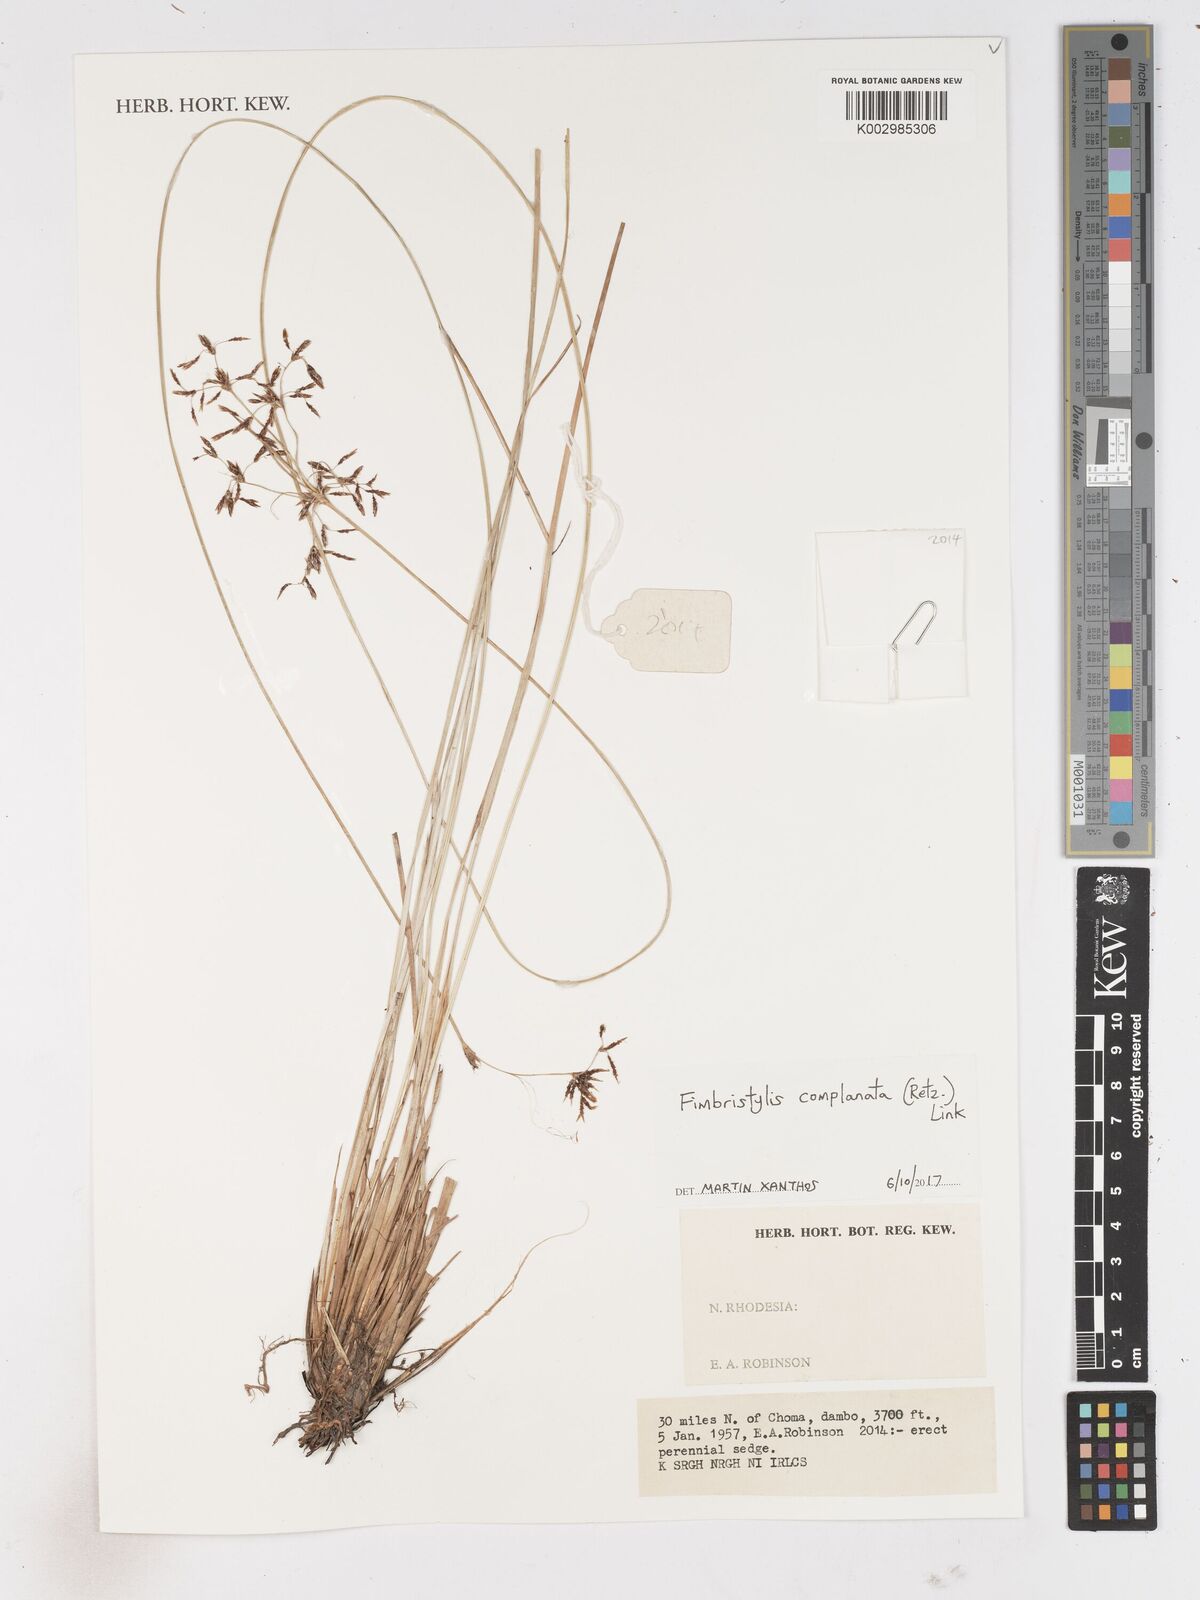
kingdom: Plantae
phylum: Tracheophyta
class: Liliopsida
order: Poales
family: Cyperaceae
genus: Fimbristylis
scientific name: Fimbristylis complanata
